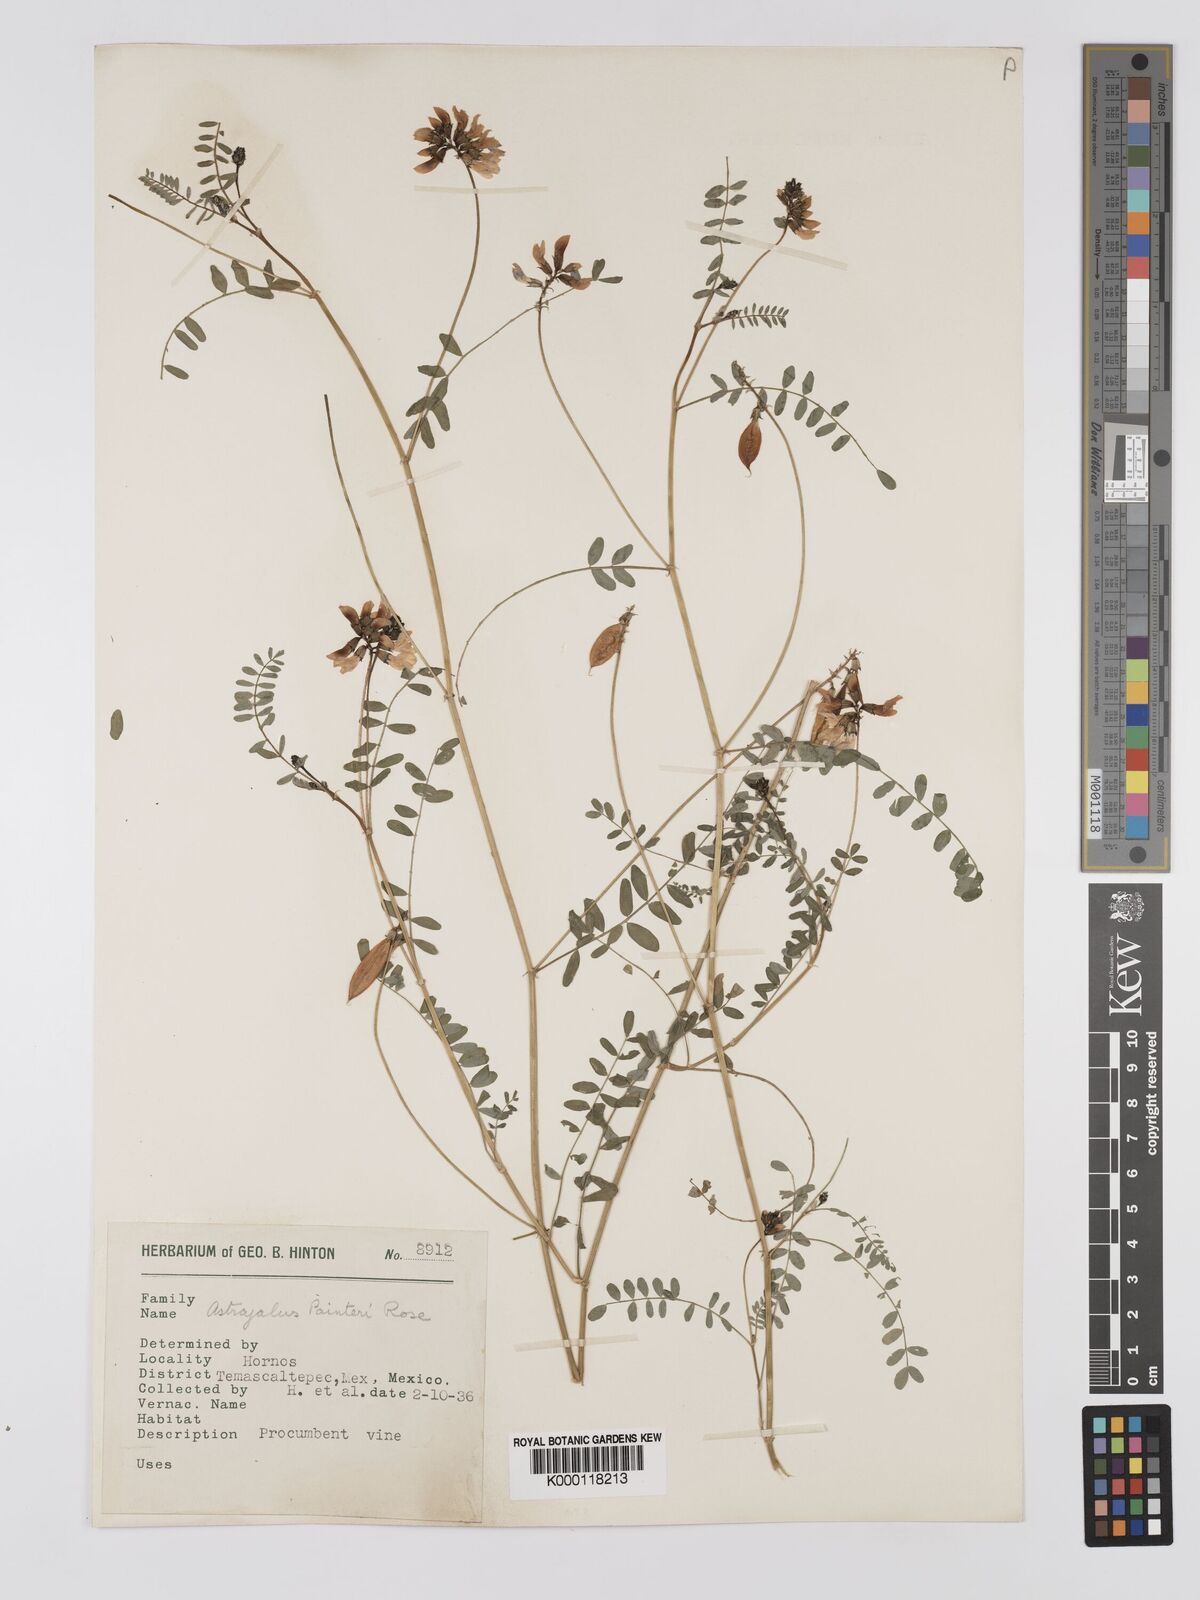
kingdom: Plantae
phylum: Tracheophyta
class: Magnoliopsida
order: Fabales
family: Fabaceae
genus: Astragalus
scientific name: Astragalus
